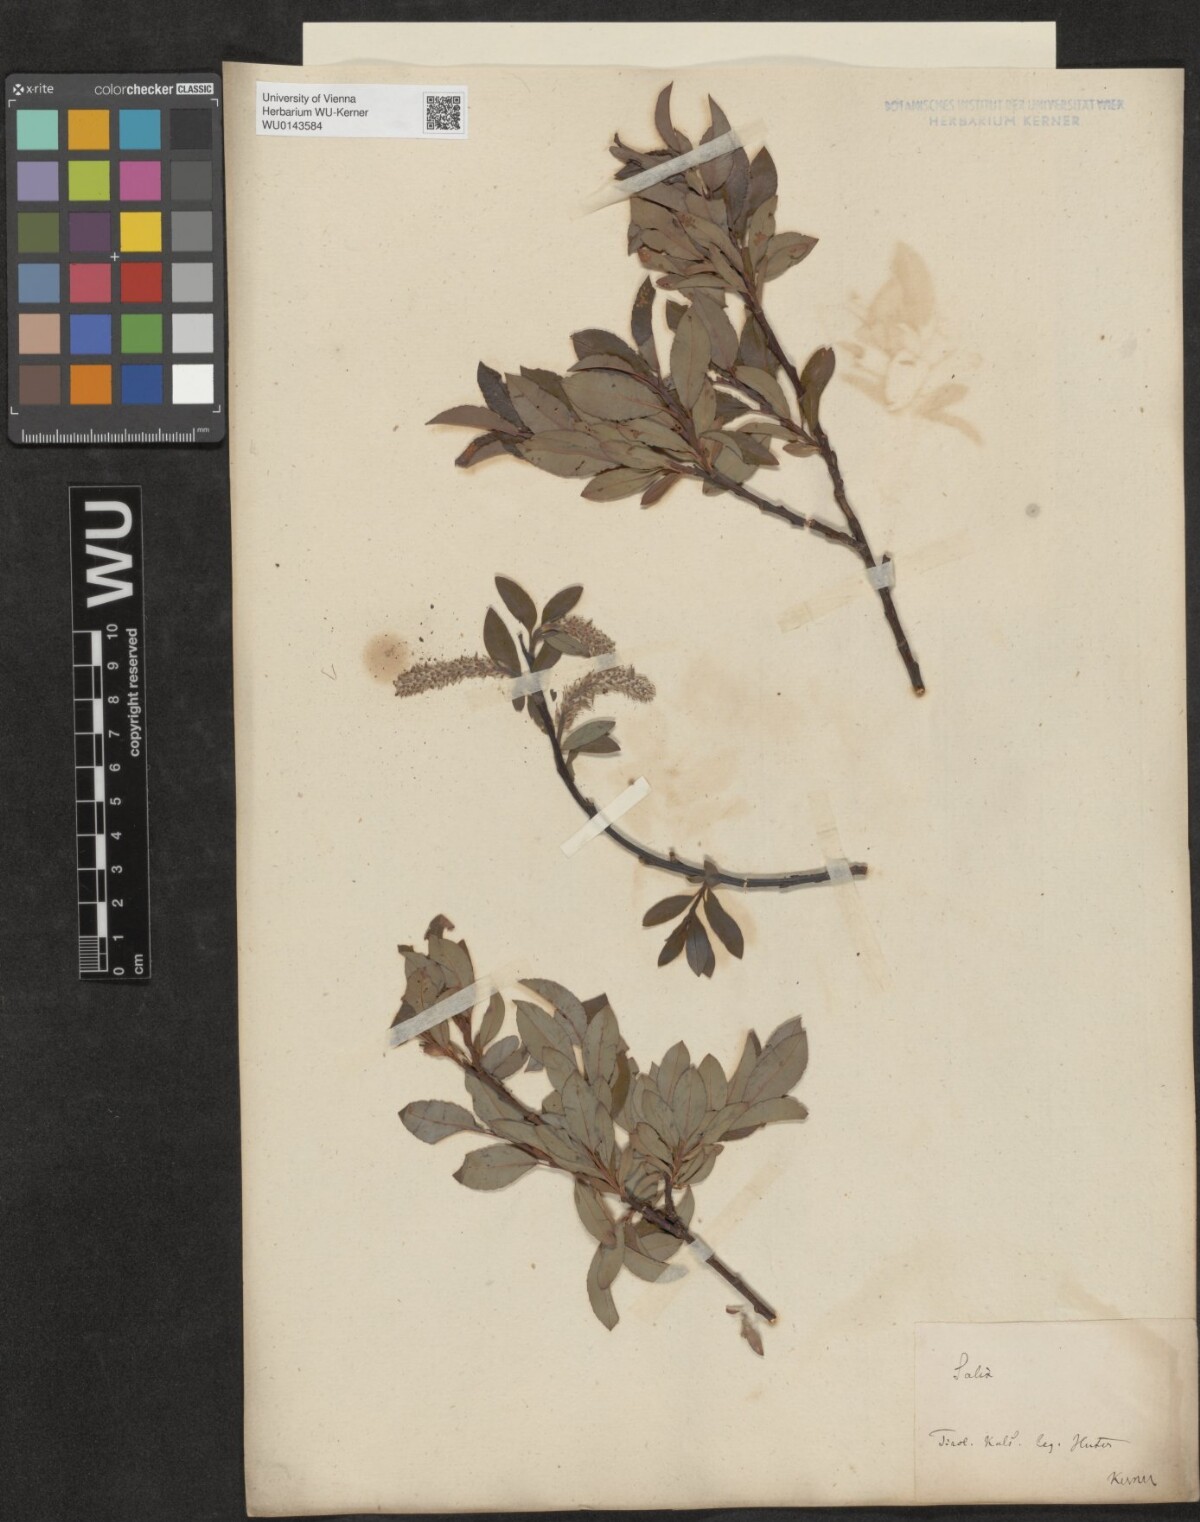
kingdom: Plantae
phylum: Tracheophyta
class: Magnoliopsida
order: Malpighiales
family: Salicaceae
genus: Salix
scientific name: Salix waldsteiniana
